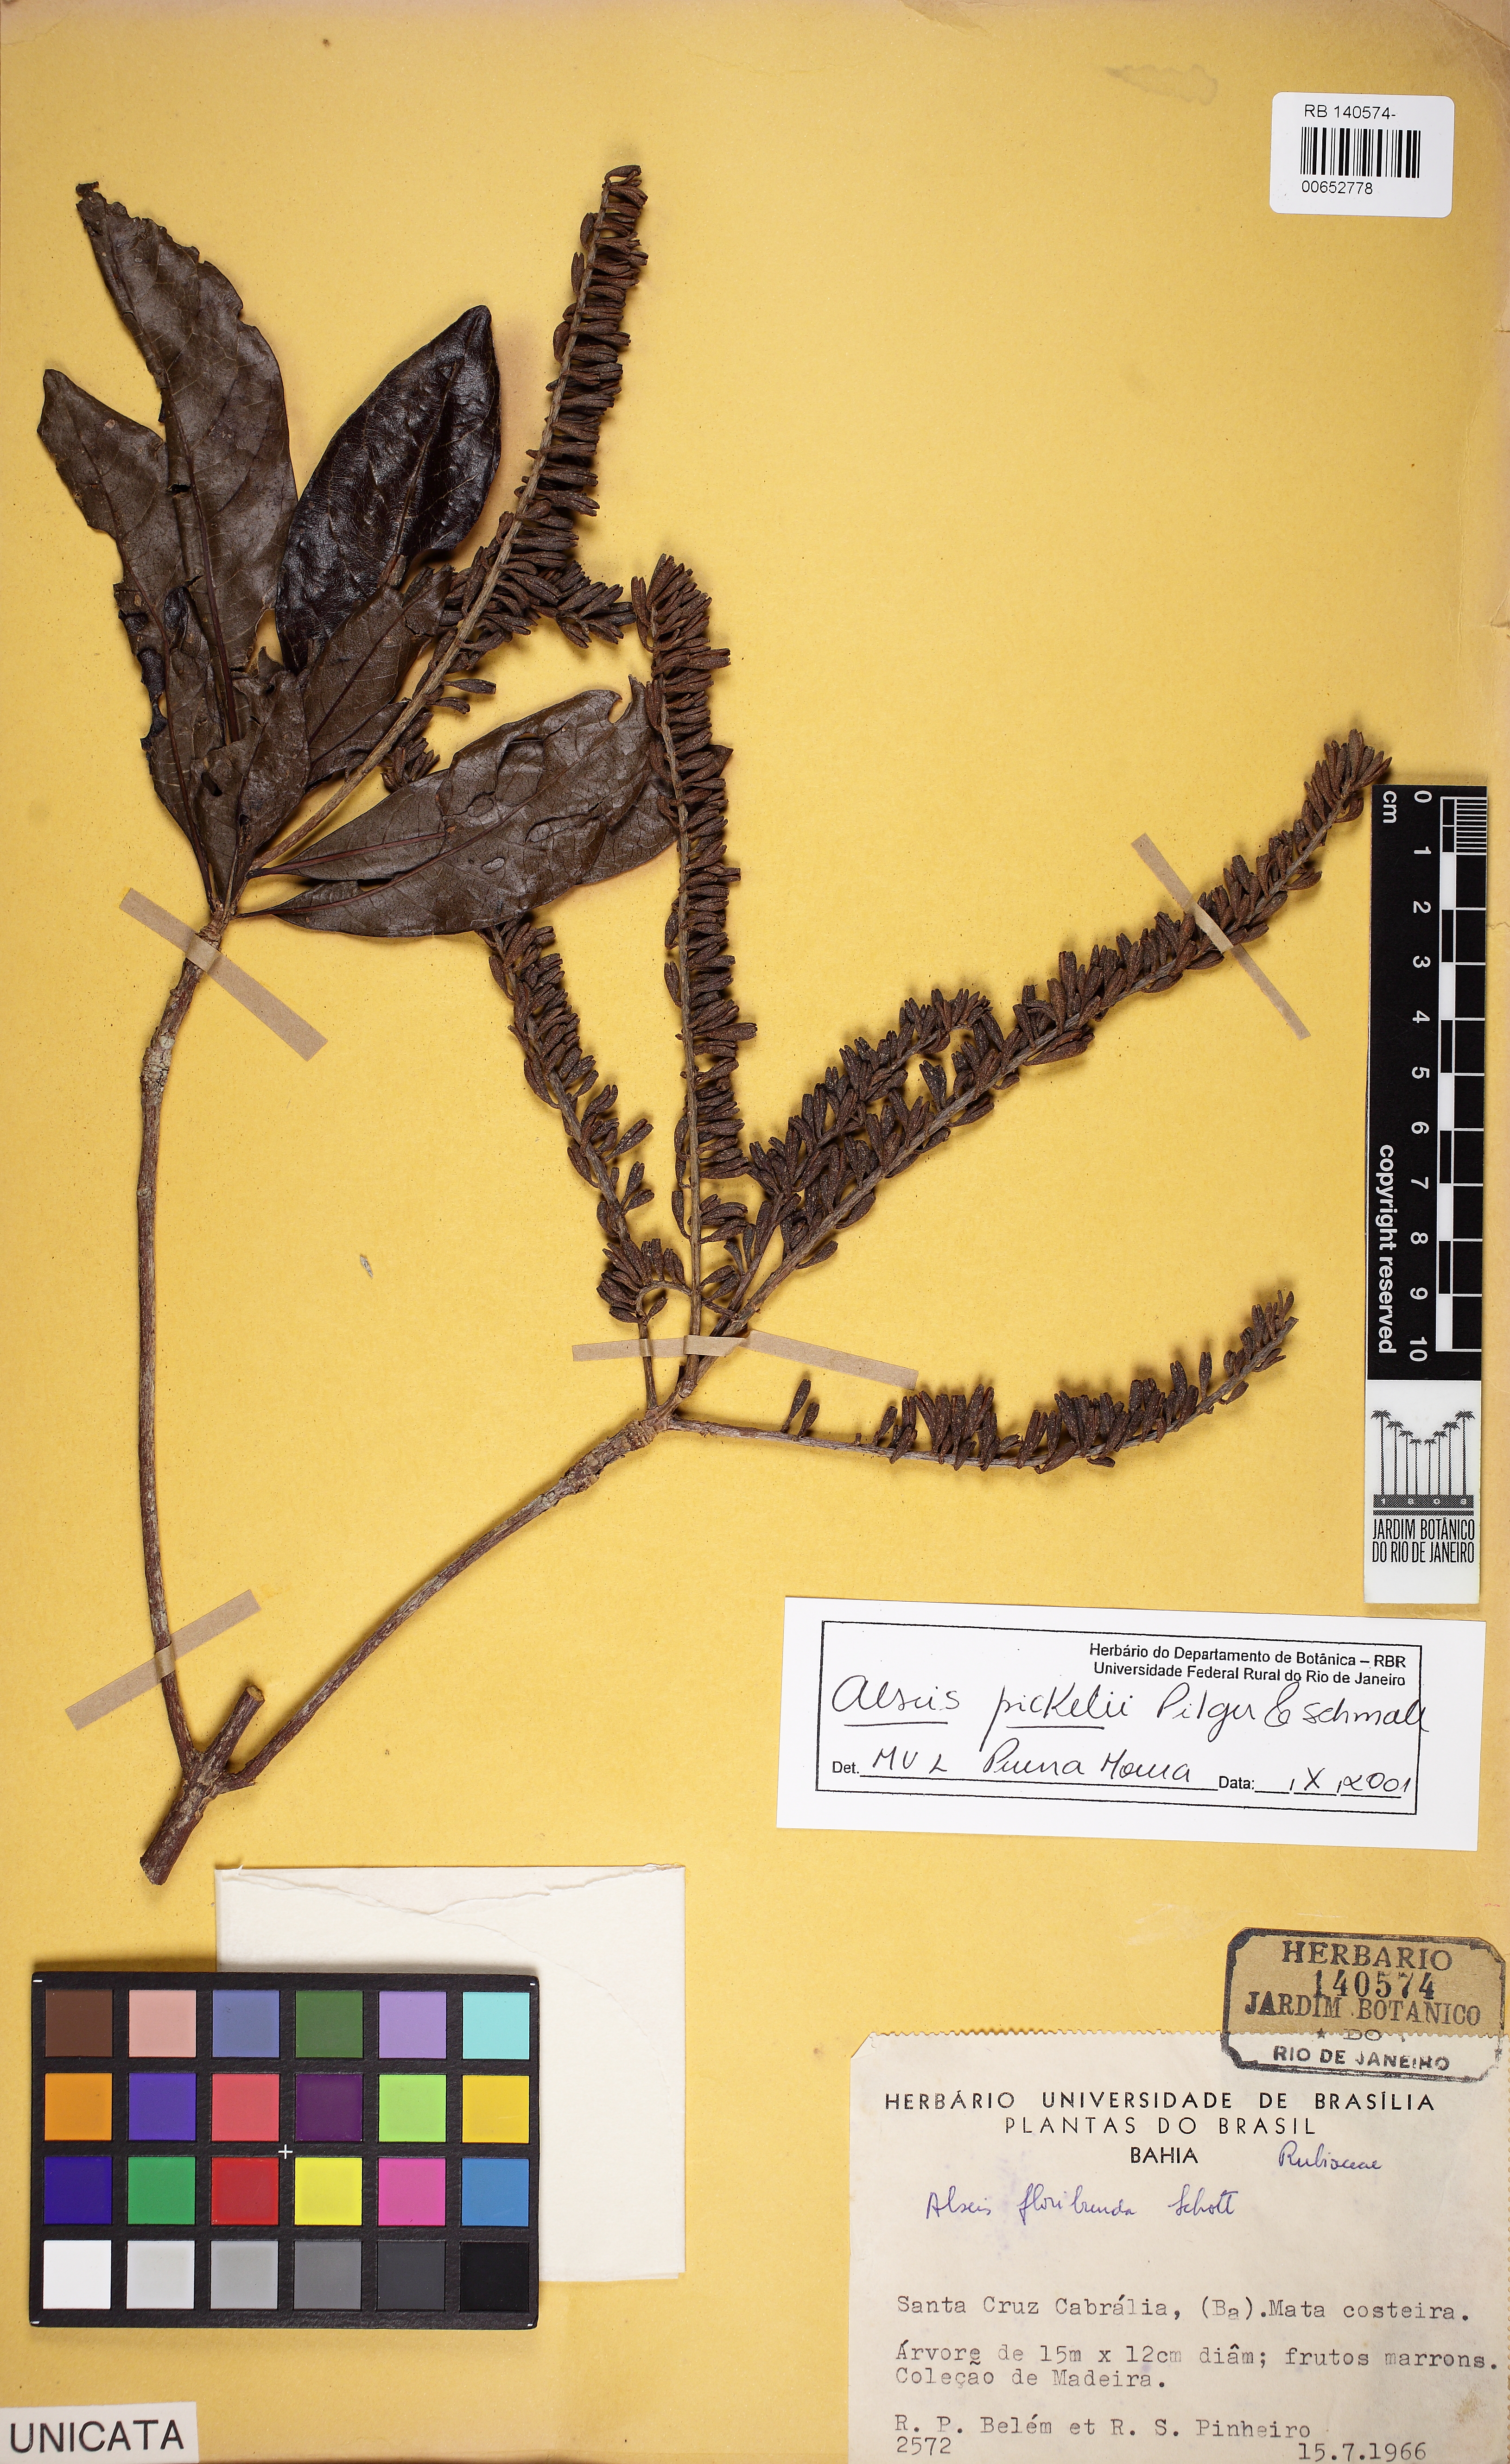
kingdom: Plantae
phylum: Tracheophyta
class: Magnoliopsida
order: Gentianales
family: Rubiaceae
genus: Alseis
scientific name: Alseis pickelii
